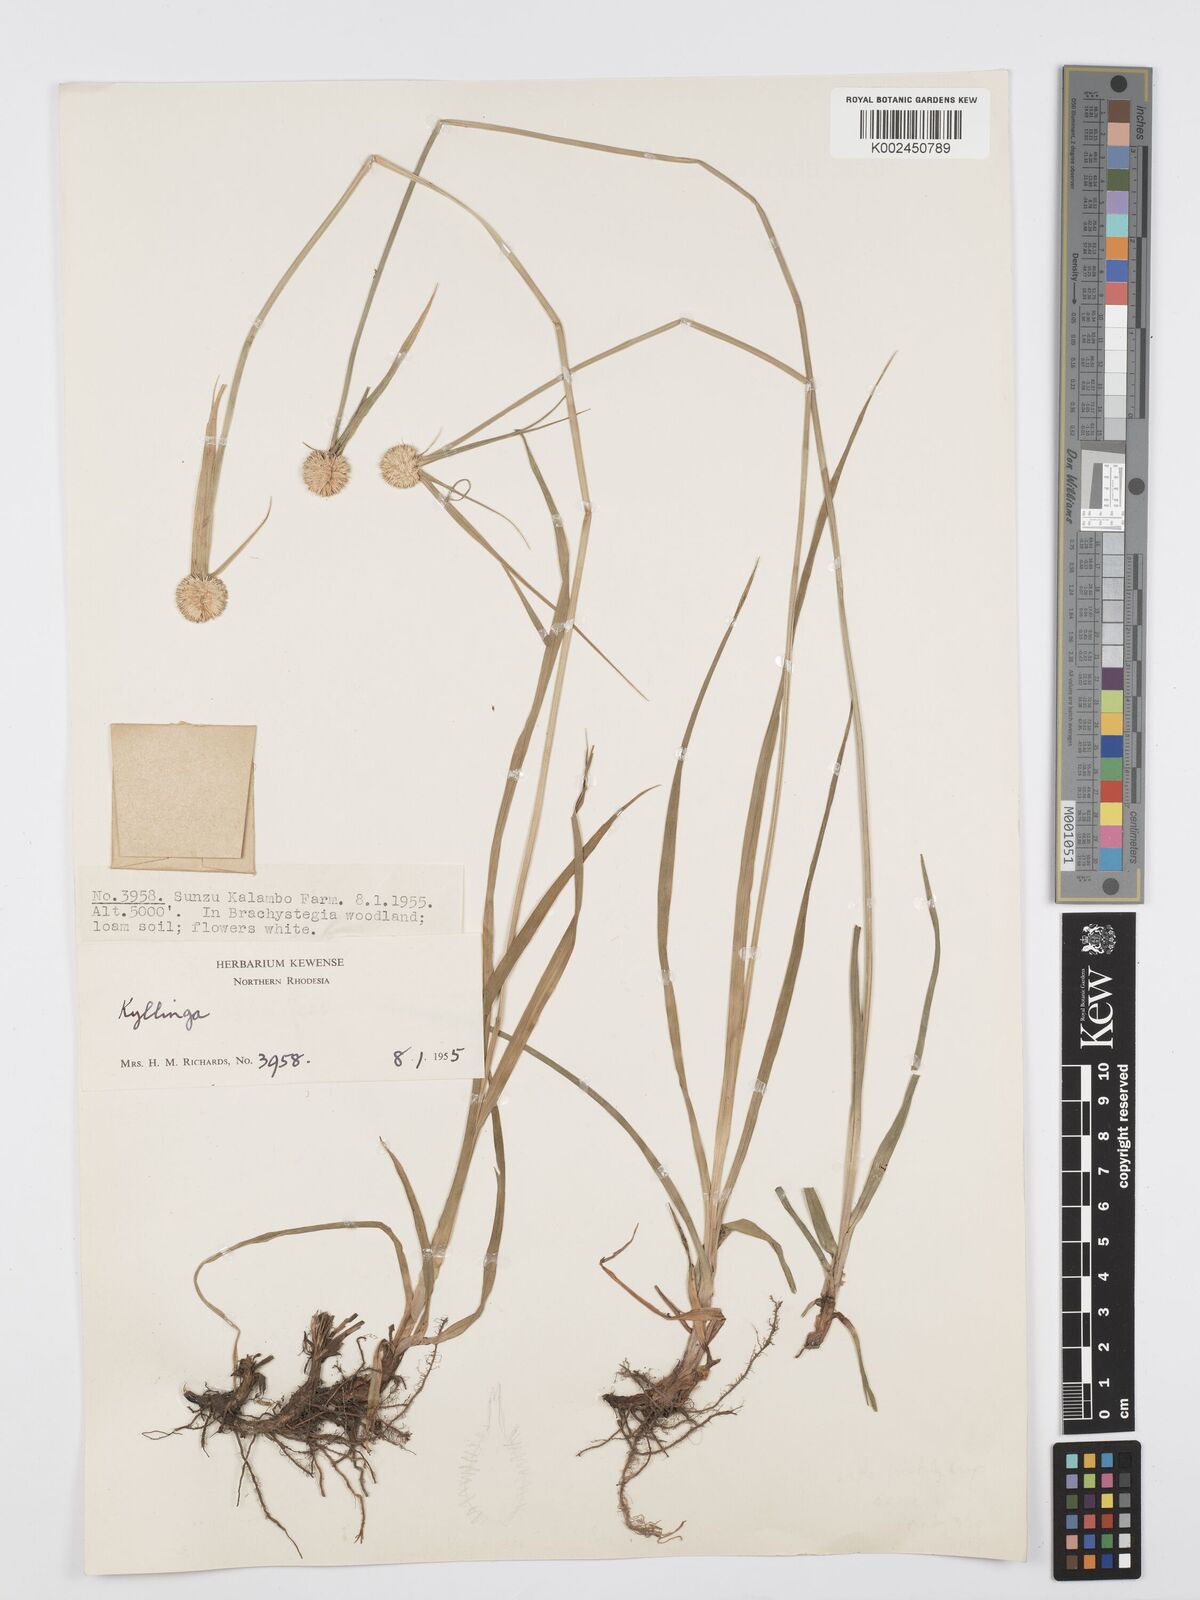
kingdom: Plantae
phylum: Tracheophyta
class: Liliopsida
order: Poales
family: Cyperaceae
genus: Cyperus
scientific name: Cyperus rukwanus
